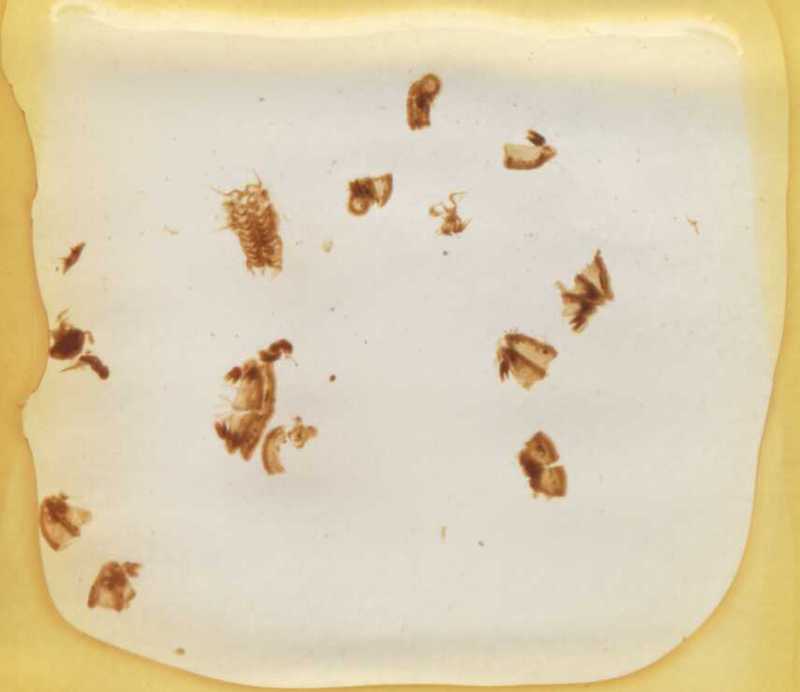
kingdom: Animalia
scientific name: Animalia
